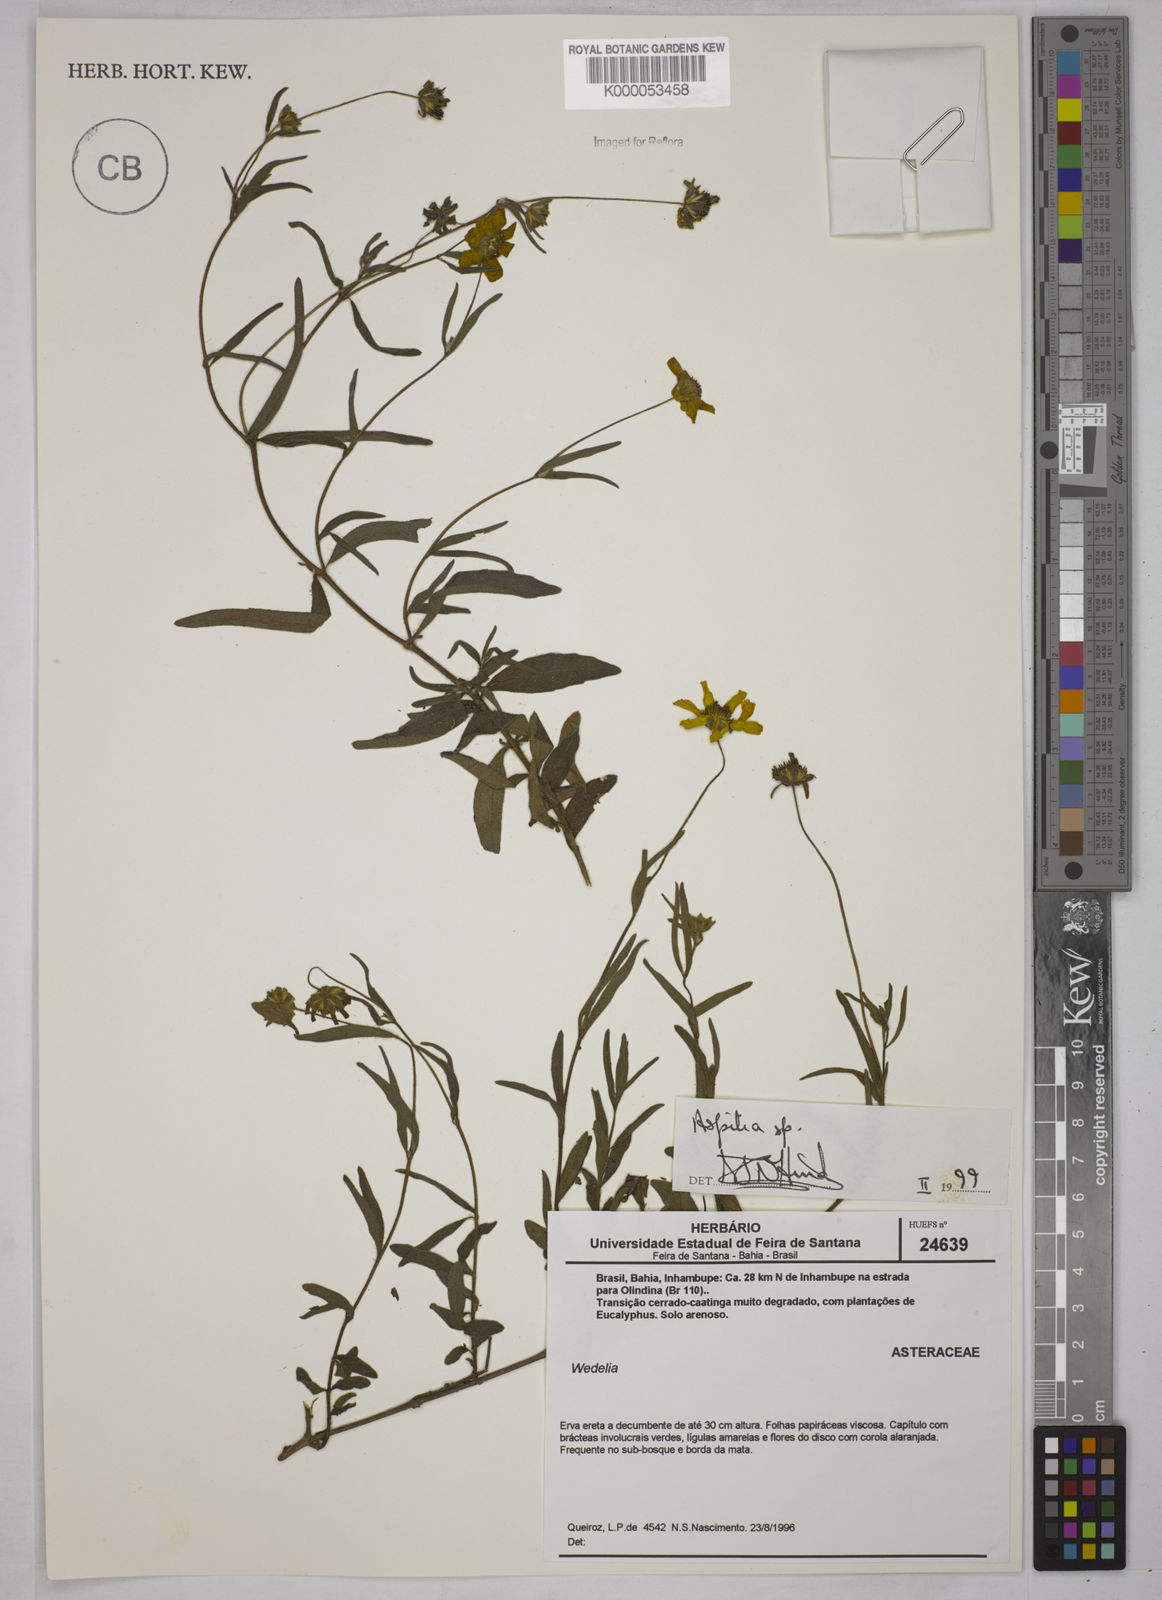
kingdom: Plantae
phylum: Tracheophyta
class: Magnoliopsida
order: Asterales
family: Asteraceae
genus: Aspilia
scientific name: Aspilia
